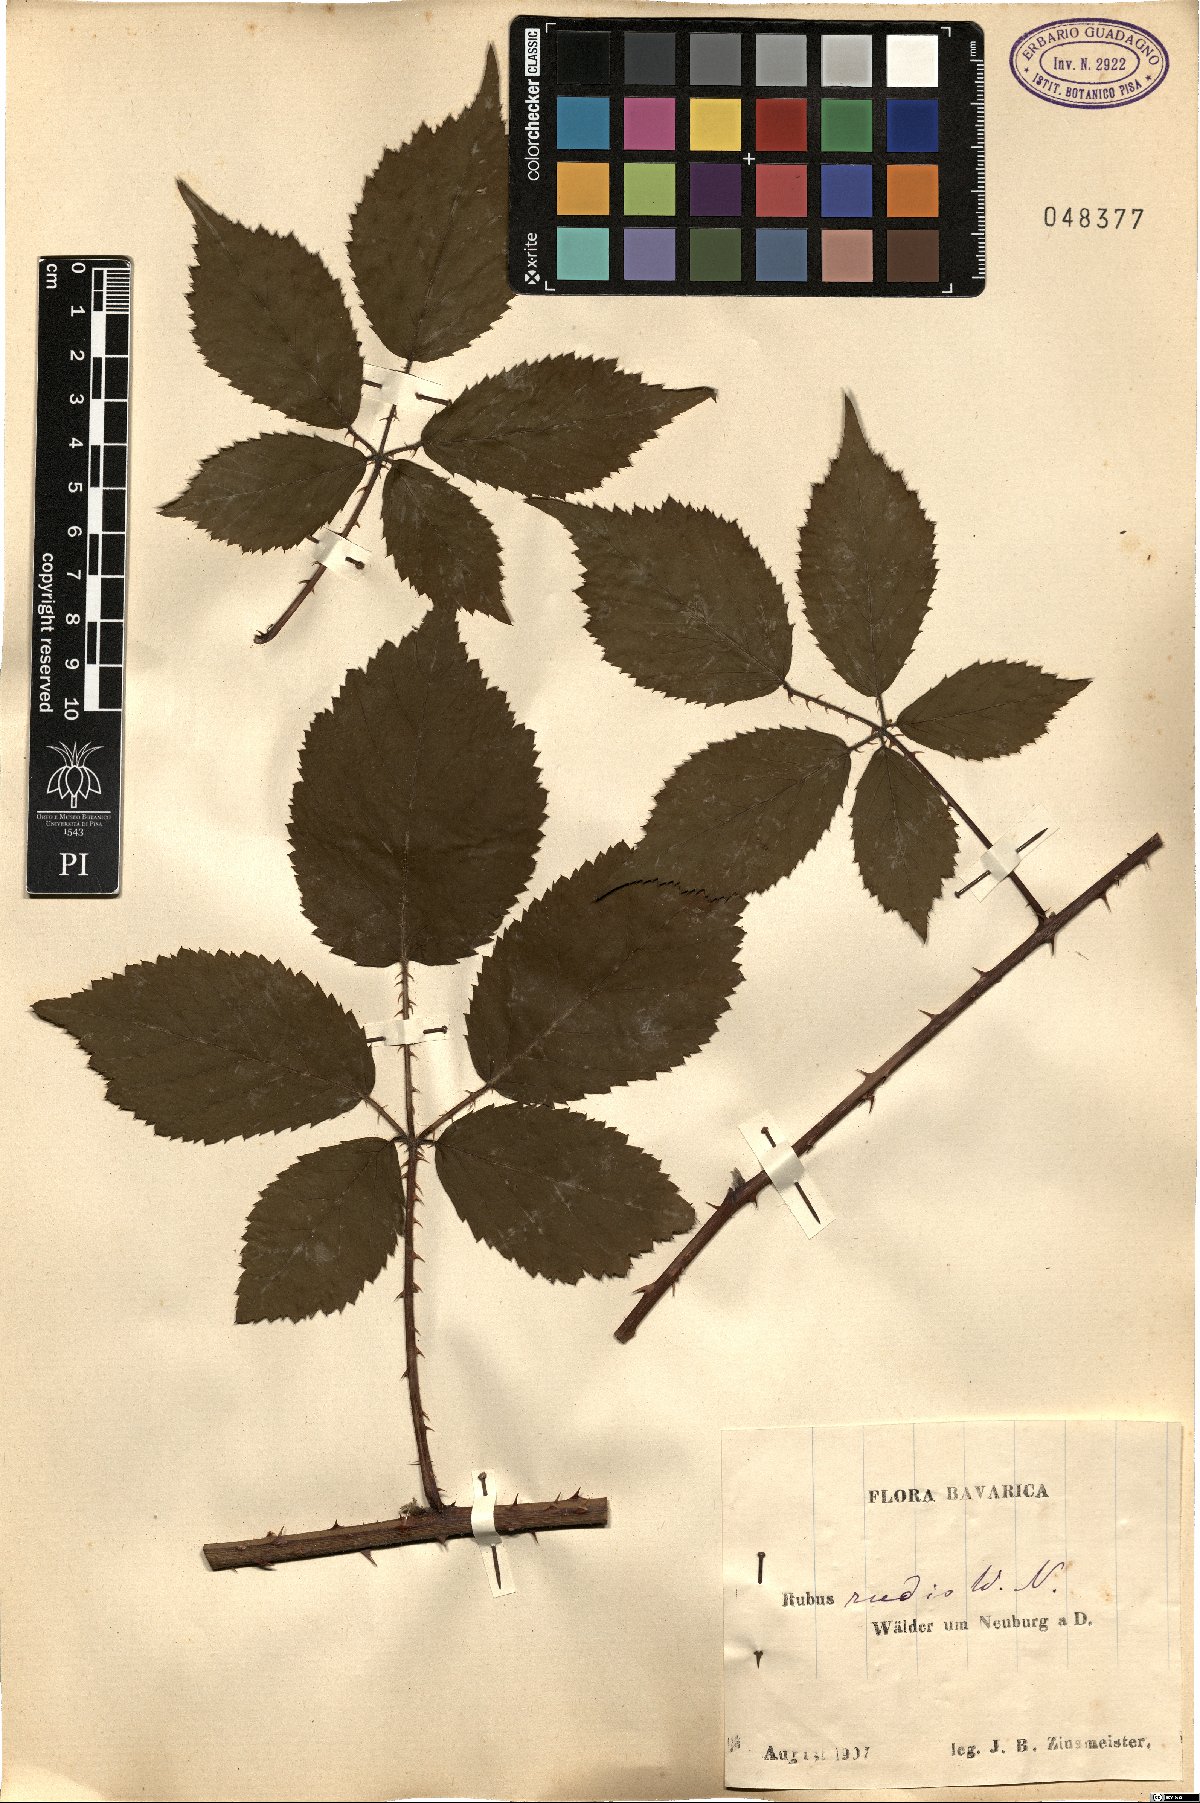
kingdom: Plantae
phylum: Tracheophyta
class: Magnoliopsida
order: Rosales
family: Rosaceae
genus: Rubus
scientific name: Rubus rudis
